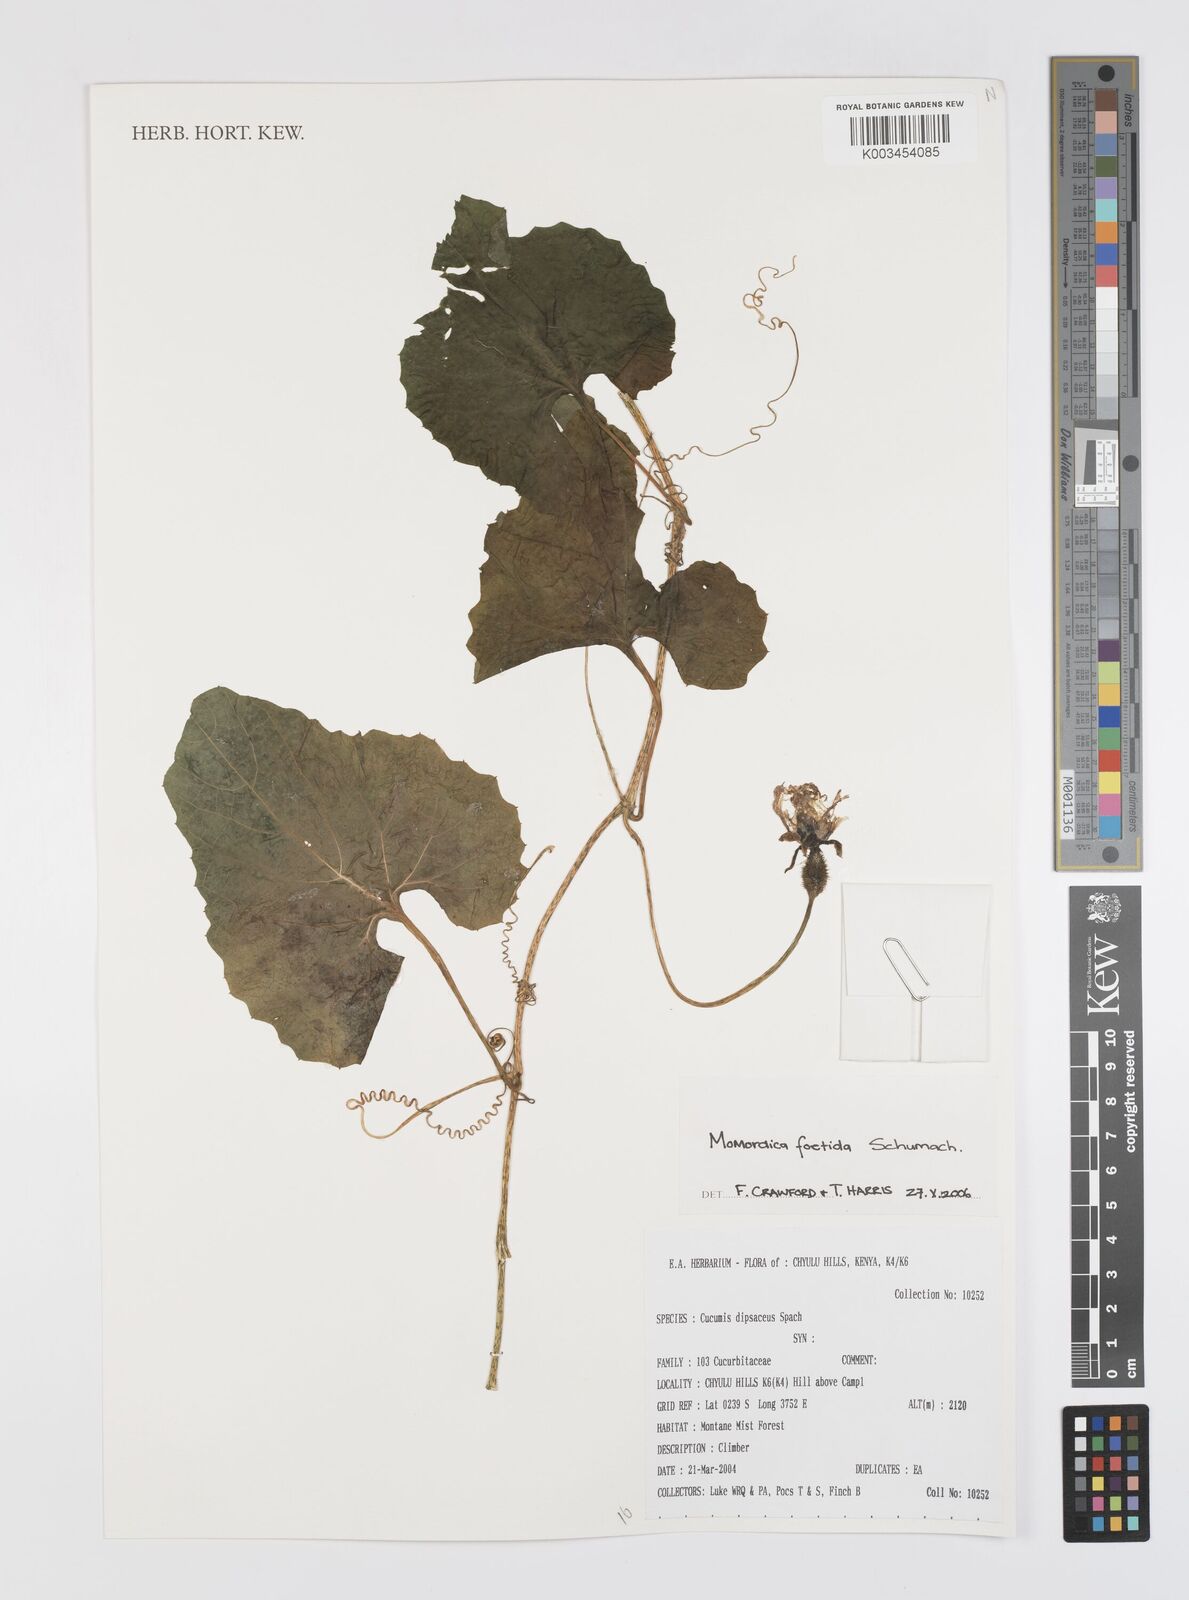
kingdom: Plantae
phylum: Tracheophyta
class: Magnoliopsida
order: Cucurbitales
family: Cucurbitaceae
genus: Momordica
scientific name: Momordica foetida
